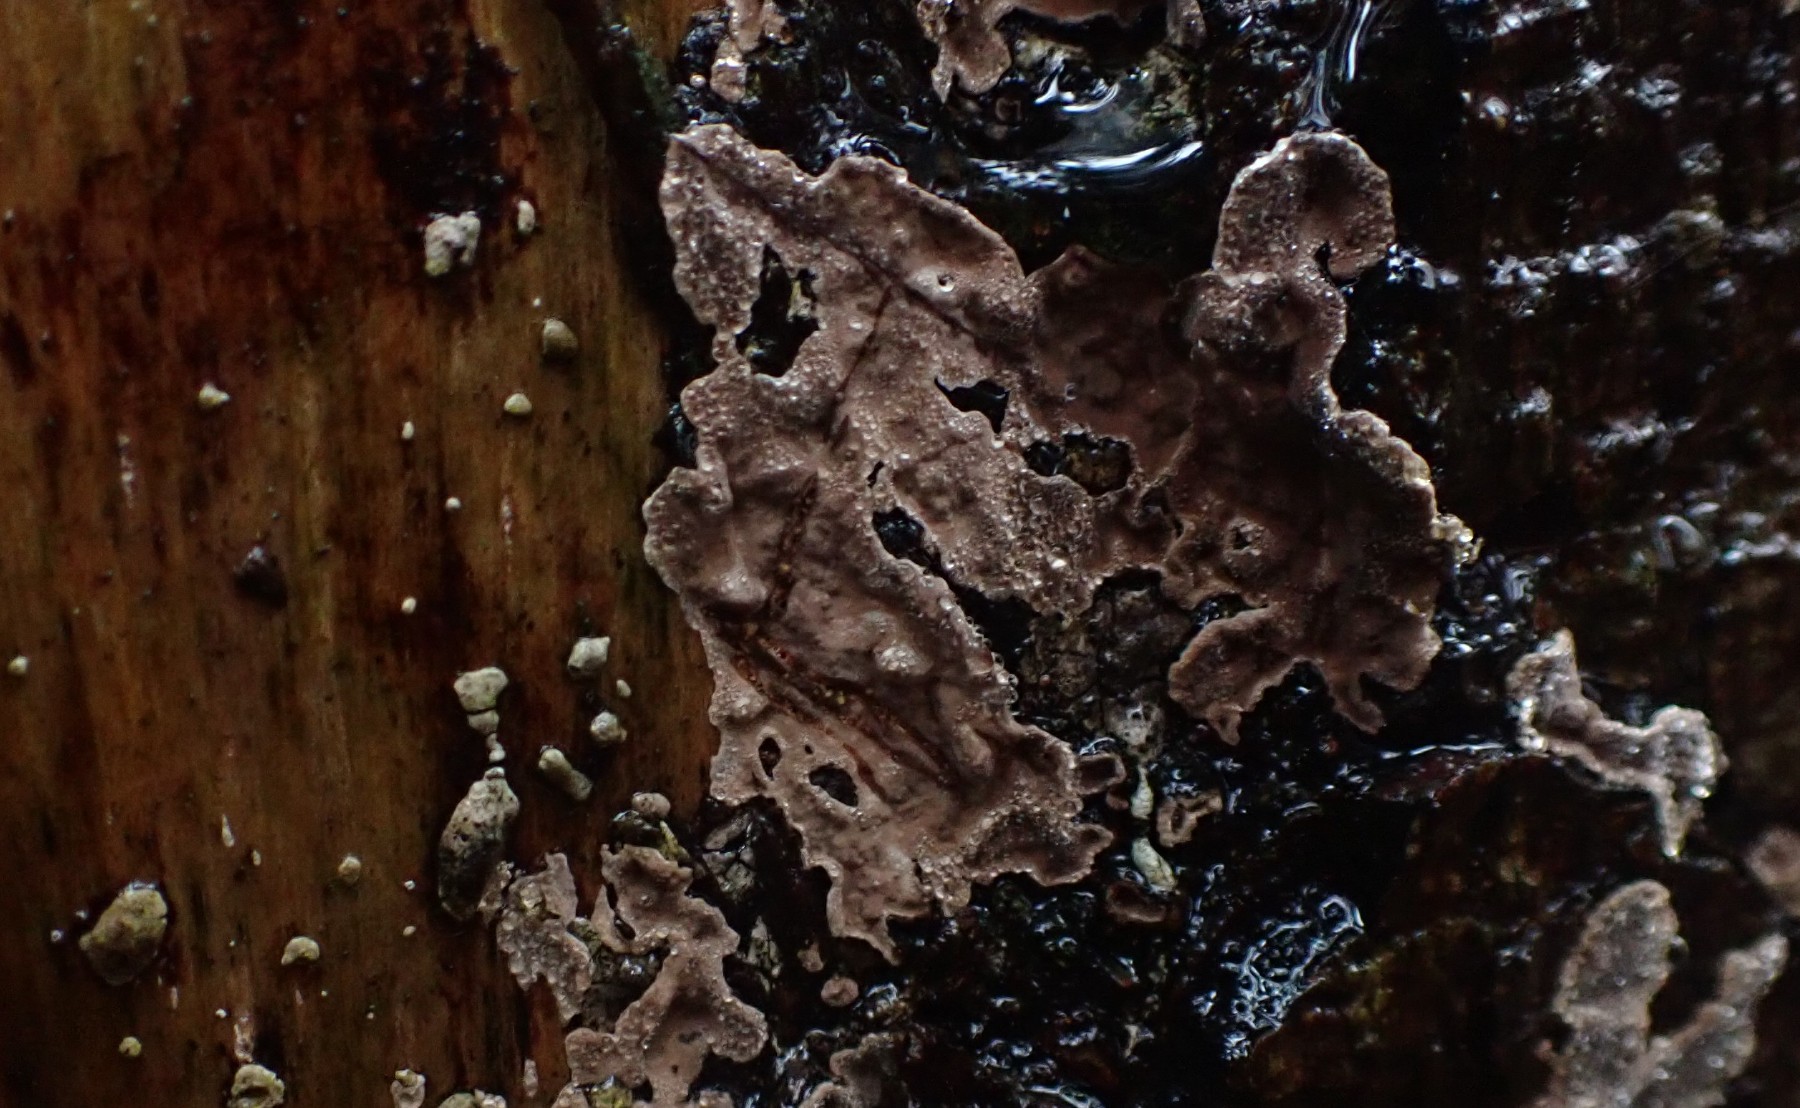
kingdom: Fungi
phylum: Basidiomycota
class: Agaricomycetes
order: Russulales
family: Stereaceae
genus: Stereum
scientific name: Stereum sanguinolentum
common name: blødende lædersvamp
